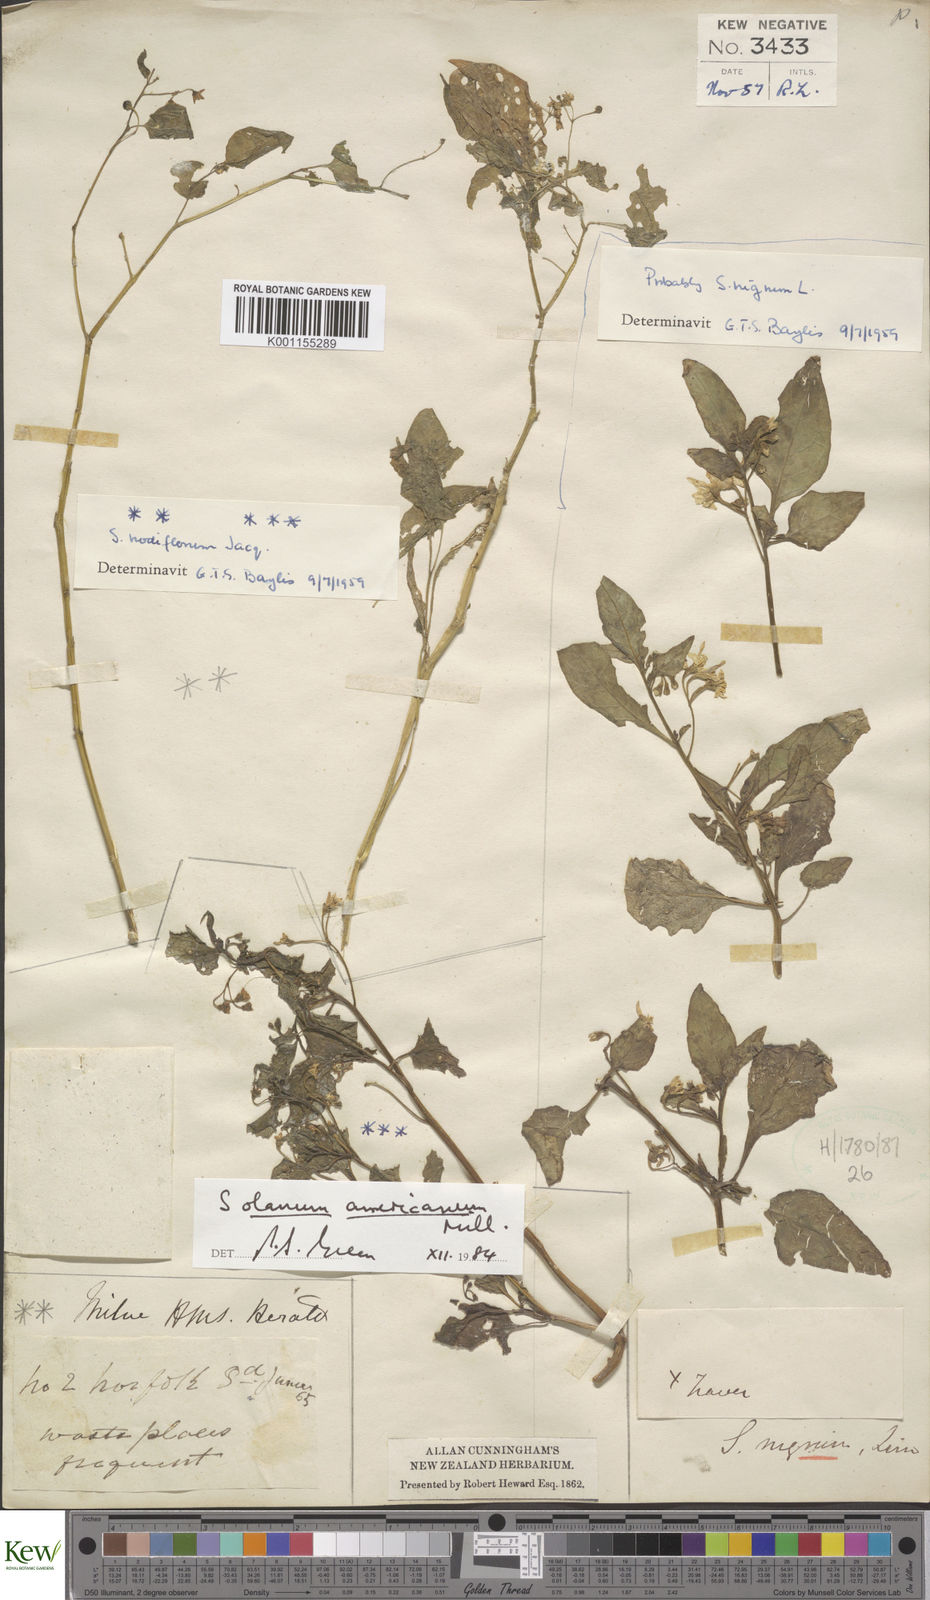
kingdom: Plantae
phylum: Tracheophyta
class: Magnoliopsida
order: Solanales
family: Solanaceae
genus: Solanum
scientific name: Solanum
